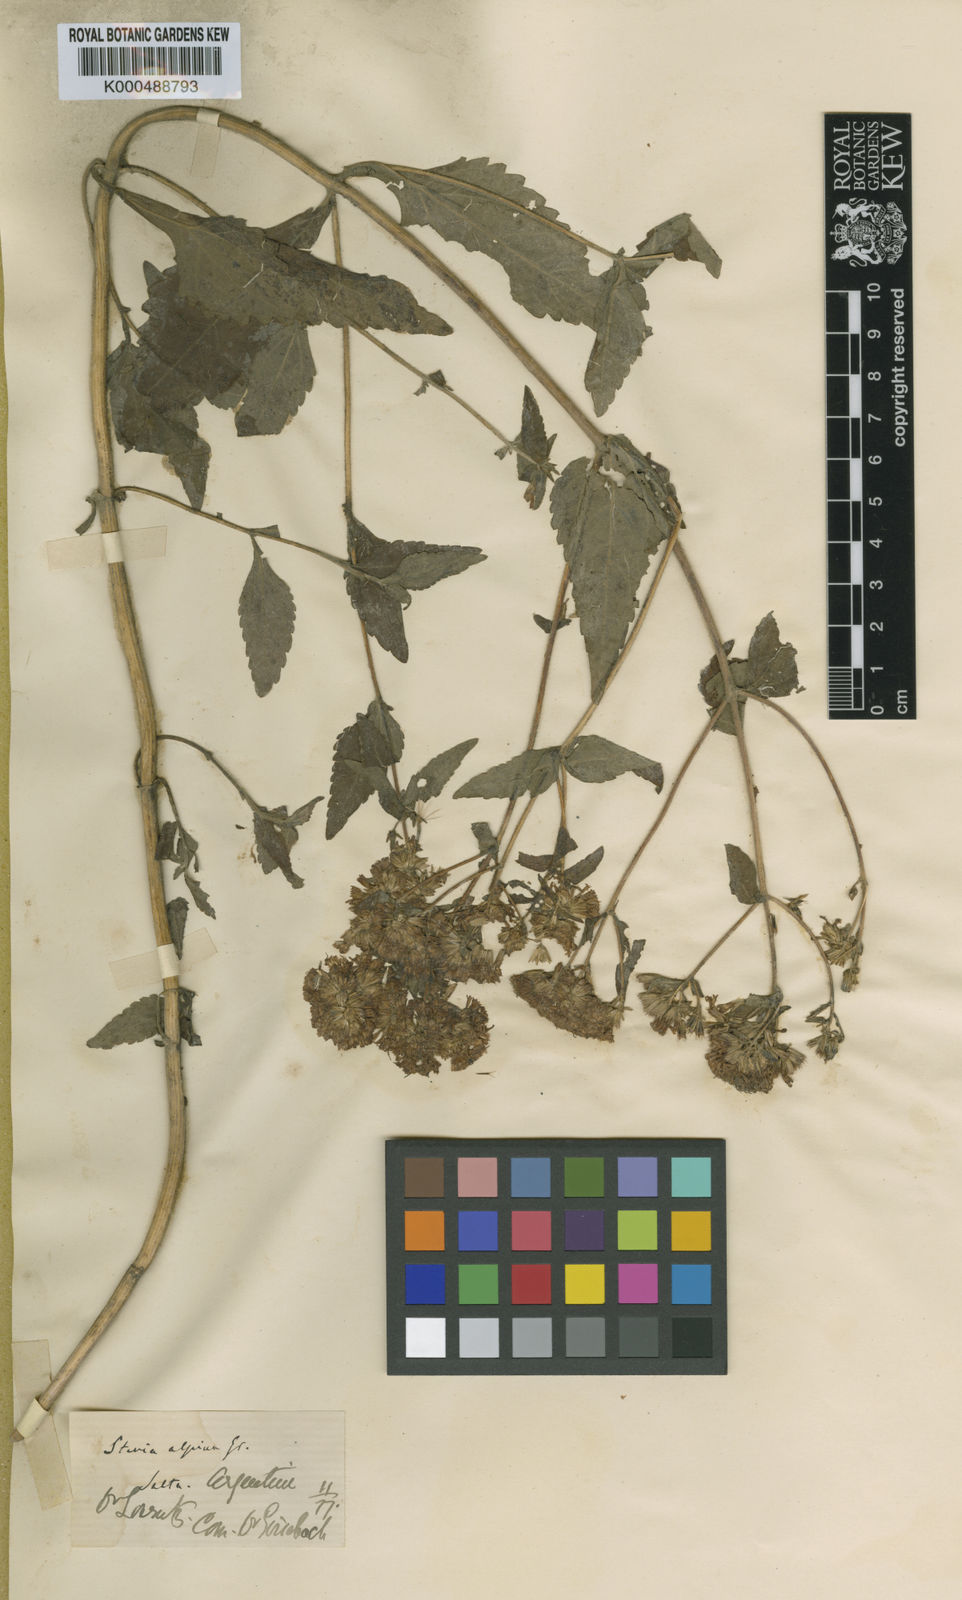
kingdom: Plantae
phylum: Tracheophyta
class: Magnoliopsida
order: Asterales
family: Asteraceae
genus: Stevia
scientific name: Stevia alpina
